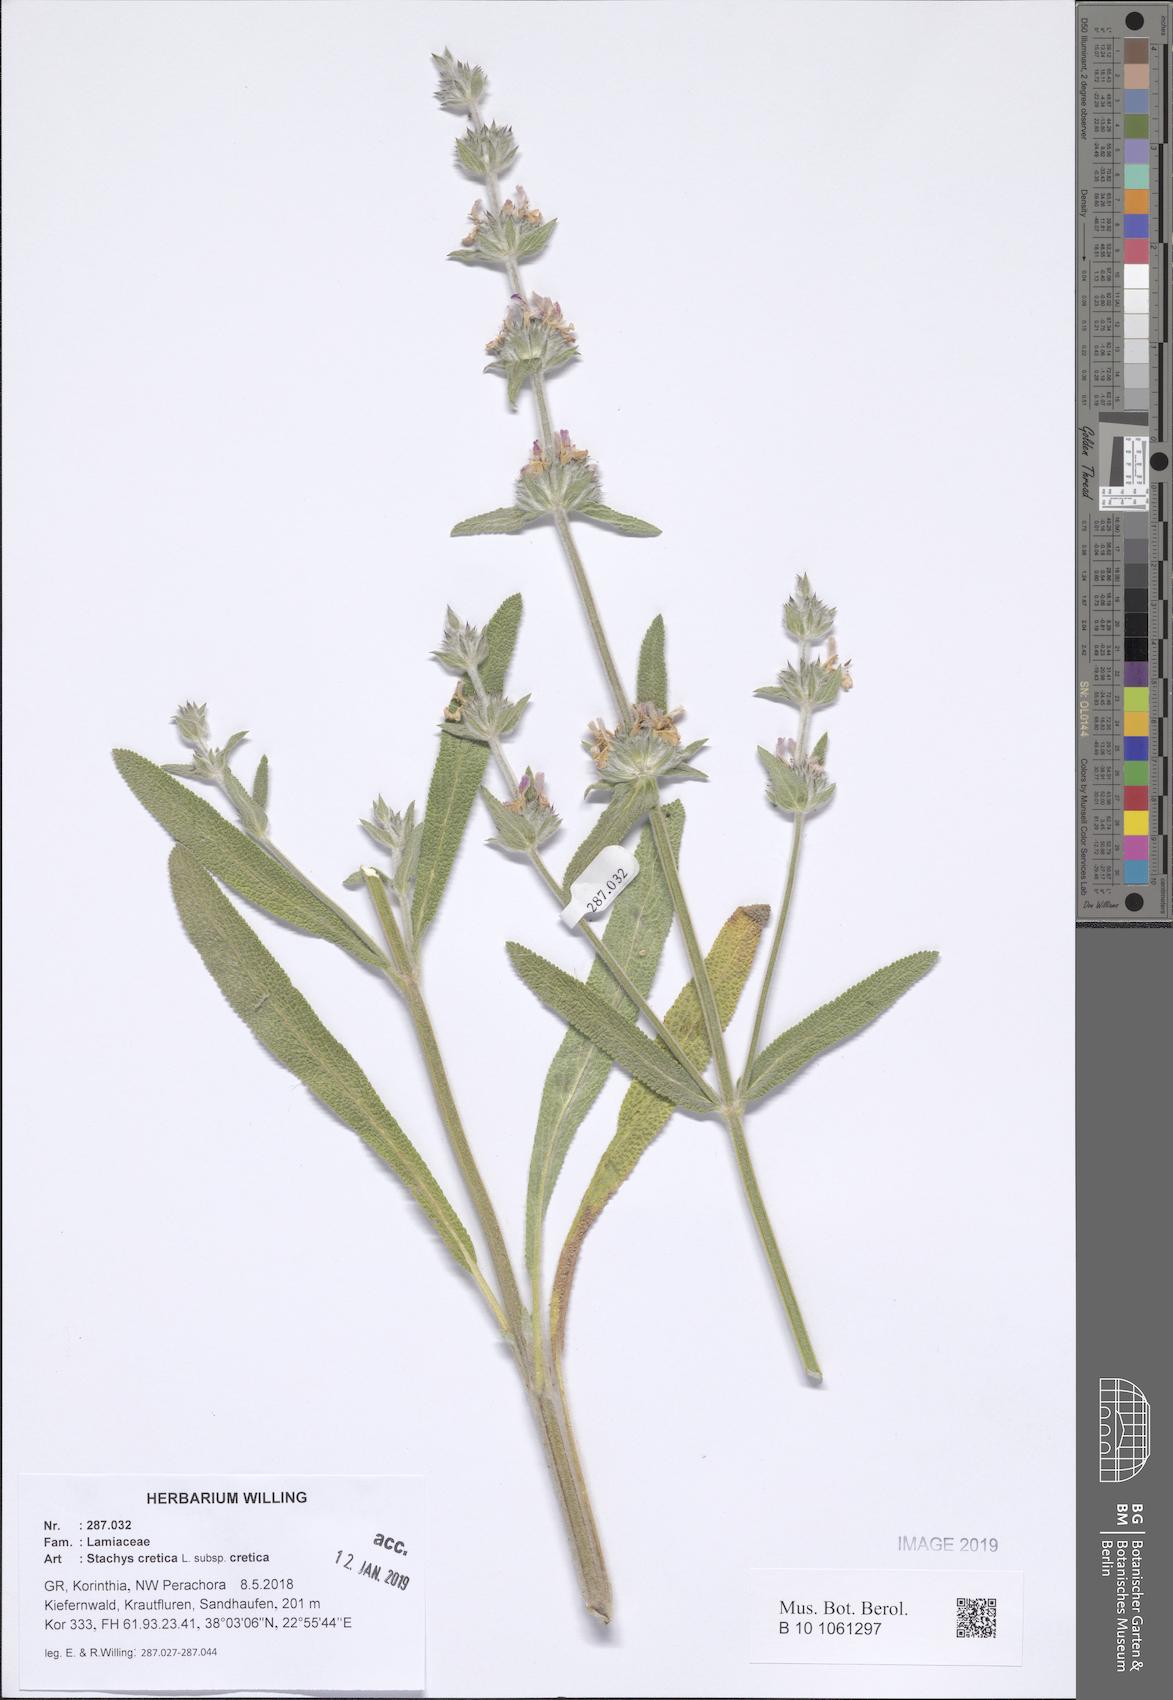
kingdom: Plantae
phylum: Tracheophyta
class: Magnoliopsida
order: Lamiales
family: Lamiaceae
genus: Stachys
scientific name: Stachys cretica
